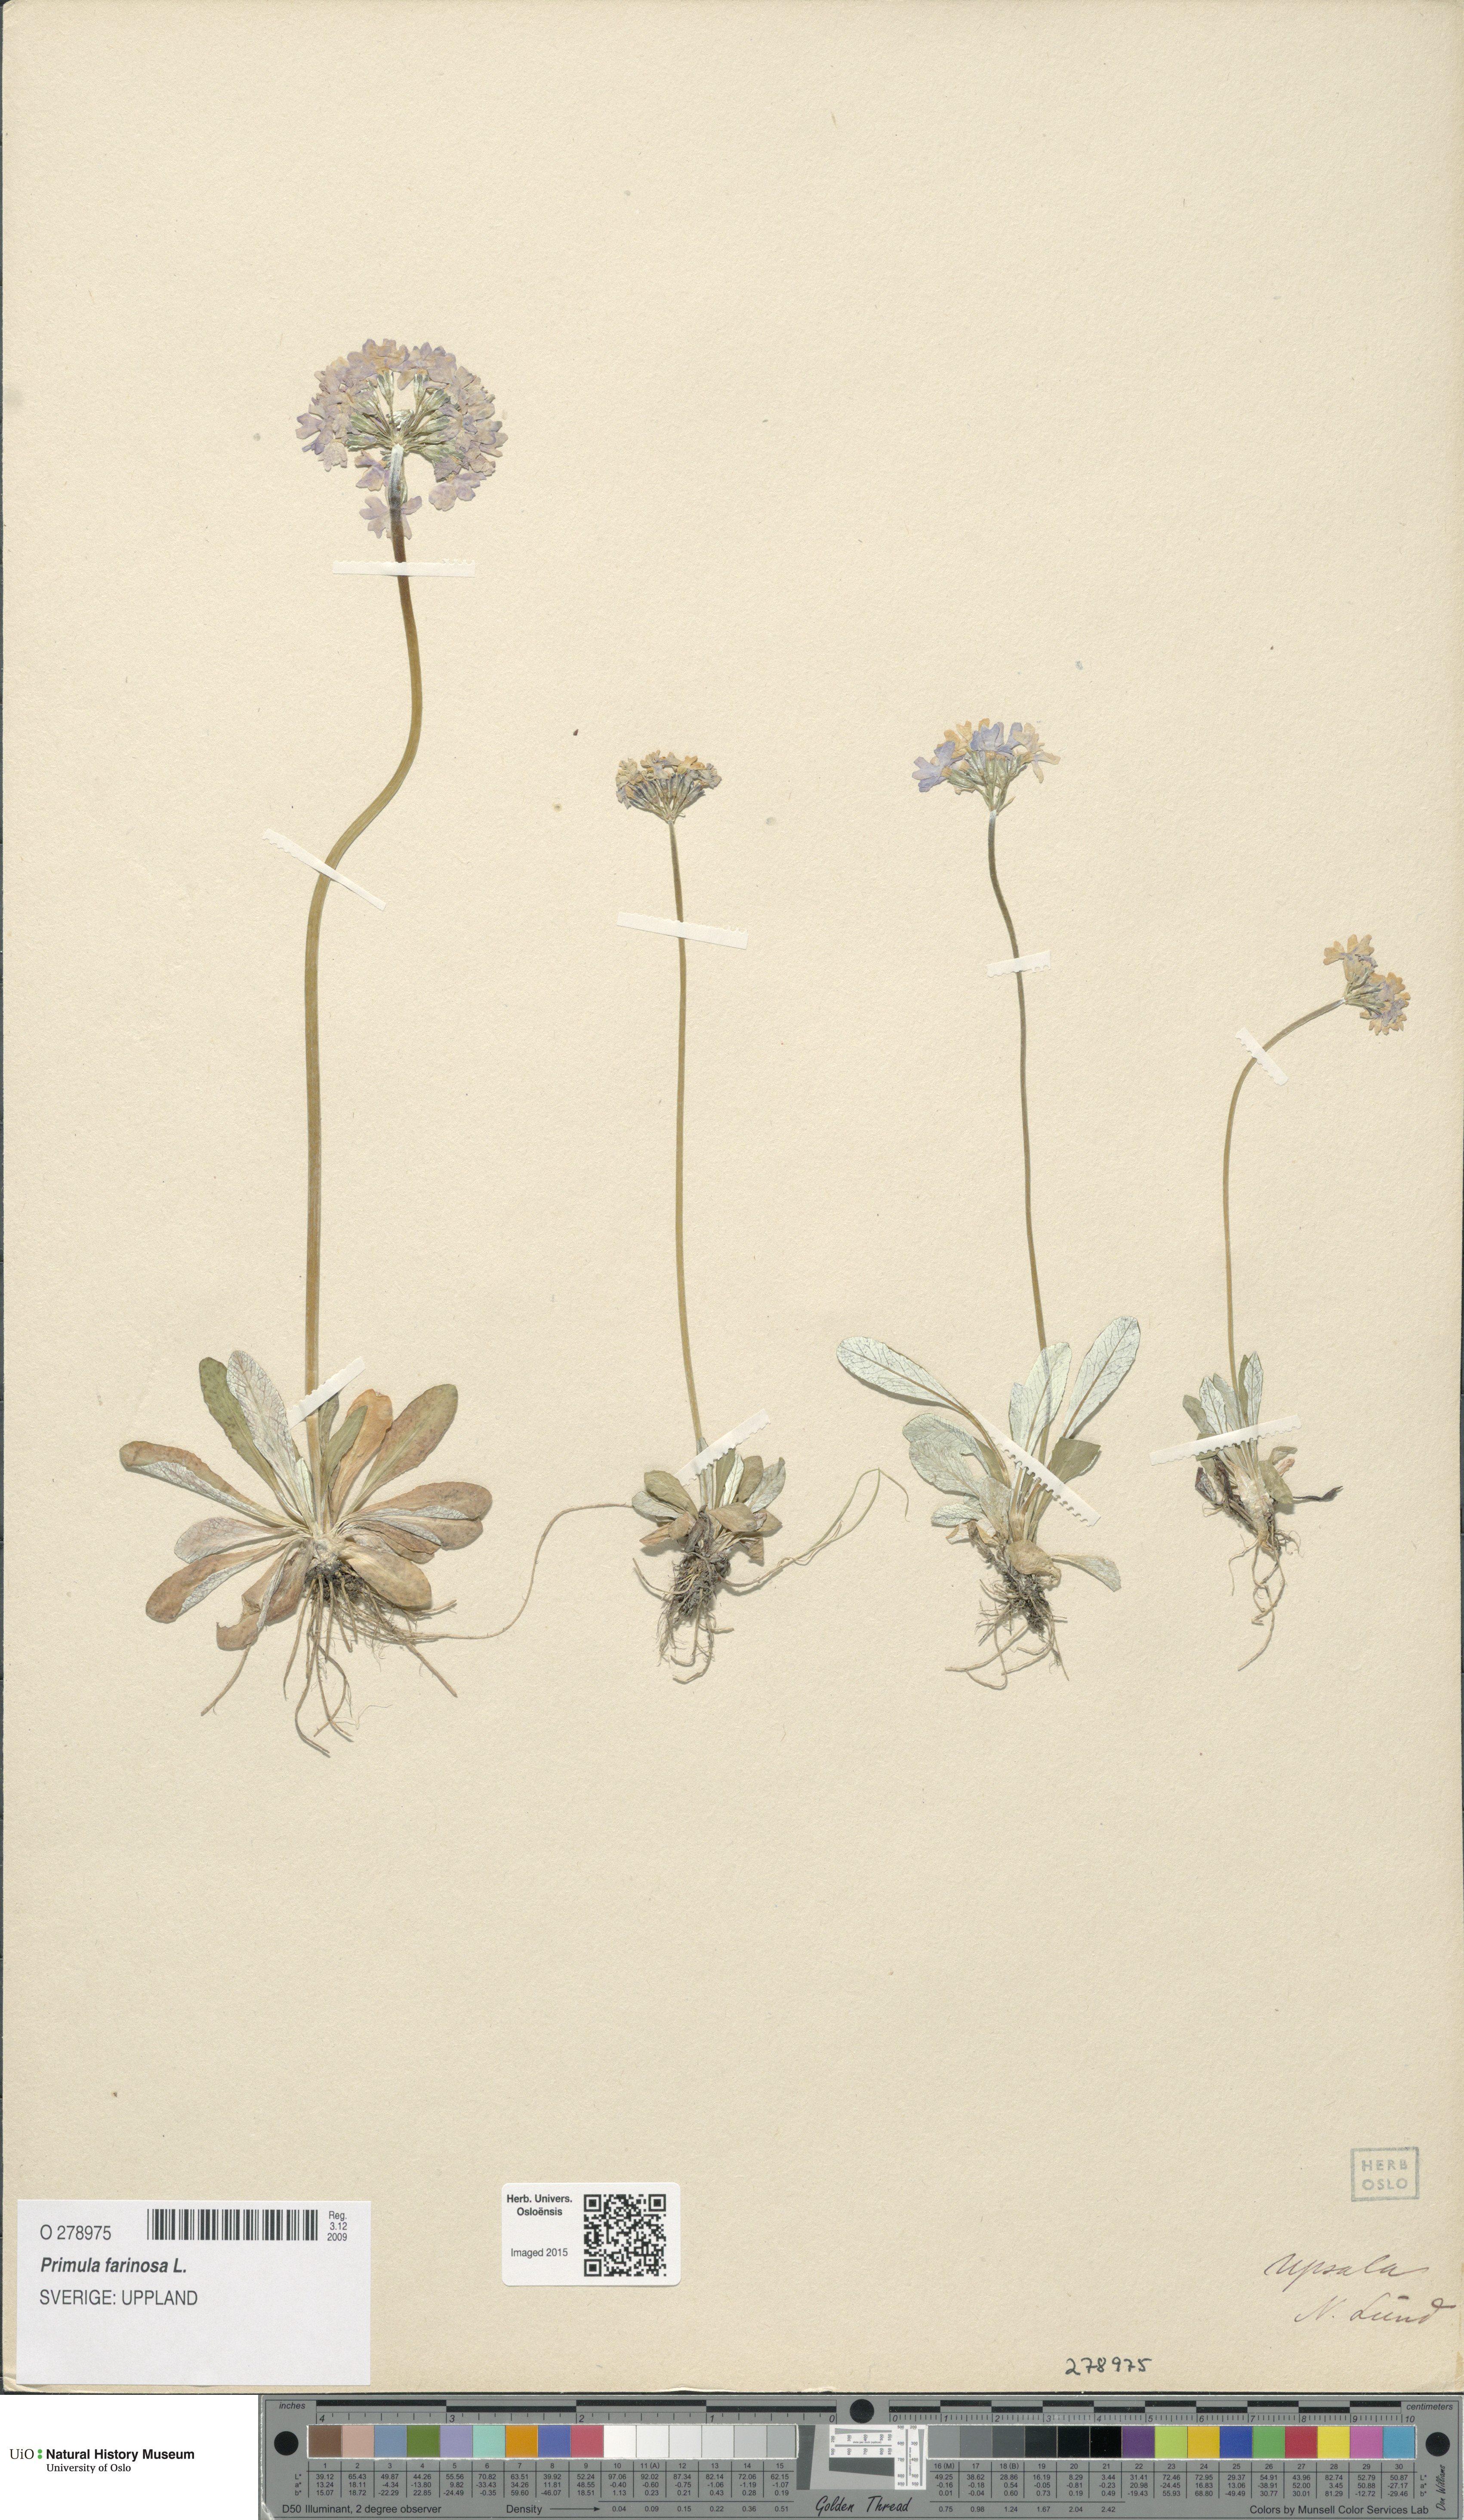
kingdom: Plantae
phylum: Tracheophyta
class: Magnoliopsida
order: Ericales
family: Primulaceae
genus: Primula
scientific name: Primula farinosa
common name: Bird's-eye primrose
